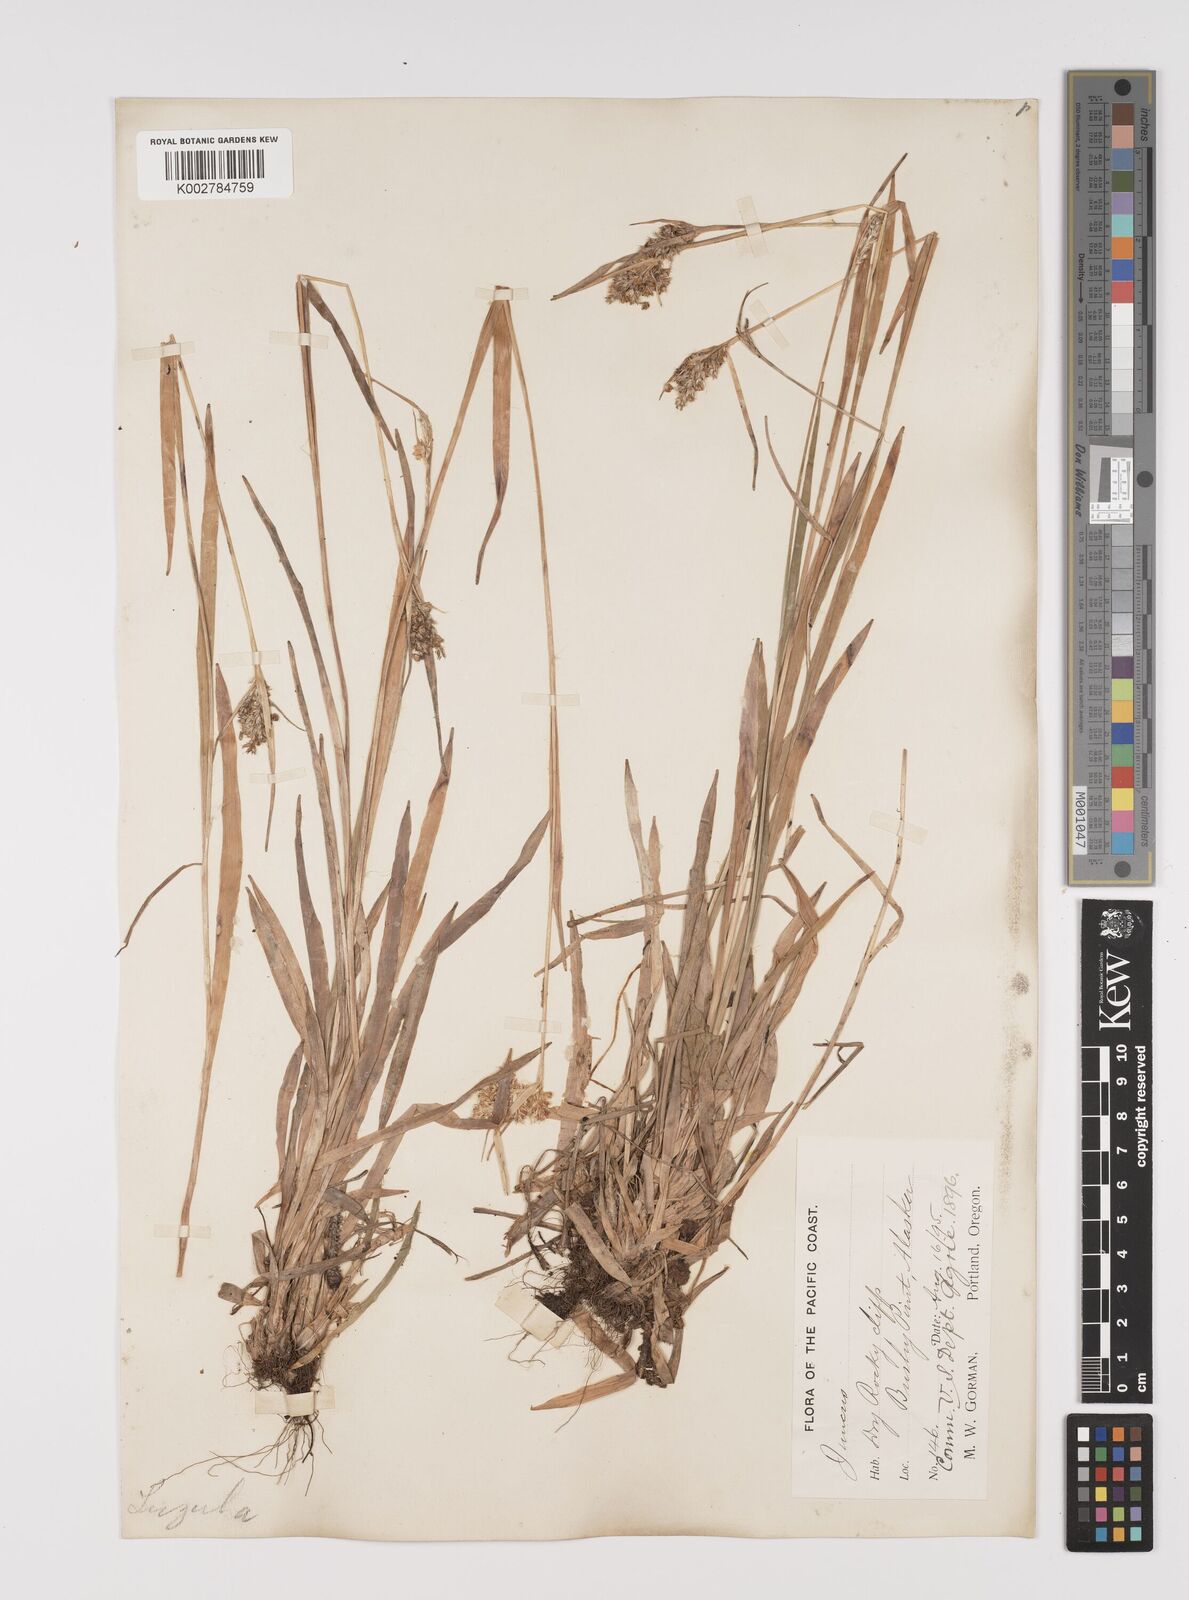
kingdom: Plantae
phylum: Tracheophyta
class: Liliopsida
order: Poales
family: Juncaceae
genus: Luzula
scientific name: Luzula comosa
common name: Pacific woodrush
